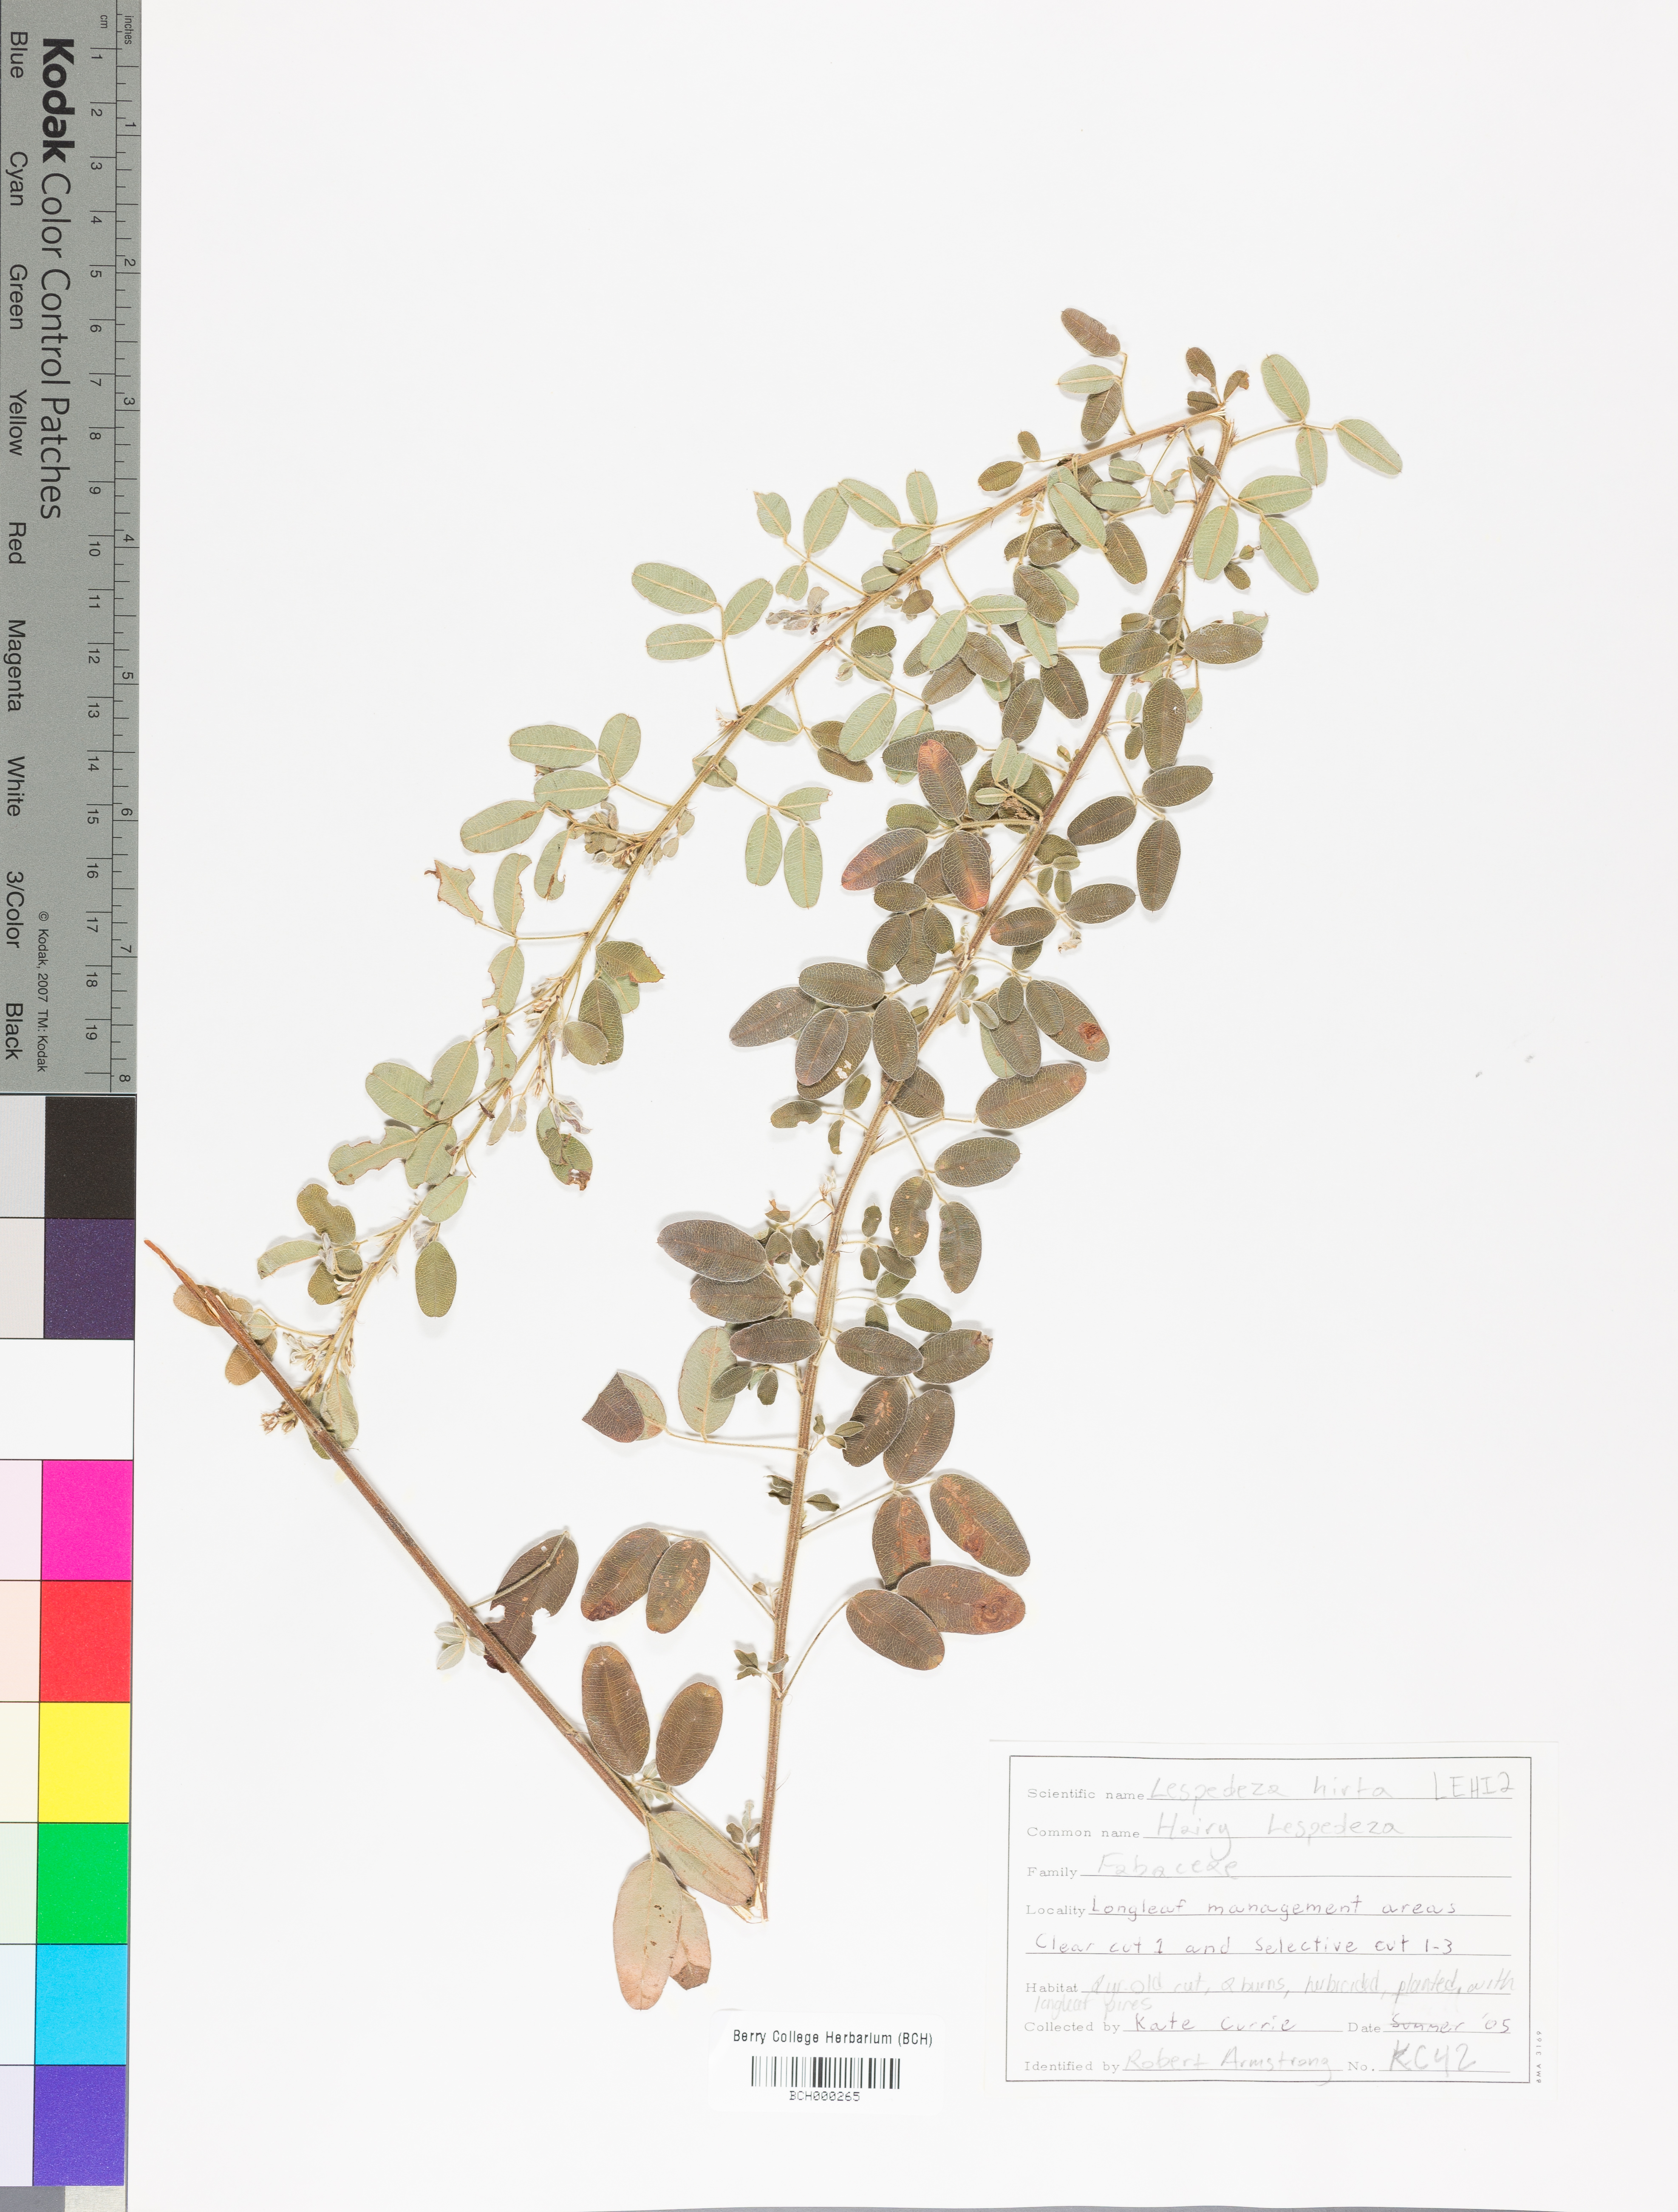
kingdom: Plantae
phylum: Tracheophyta
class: Magnoliopsida
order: Fabales
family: Fabaceae
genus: Lespedeza
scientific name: Lespedeza hirta
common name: Hairy lespedeza
